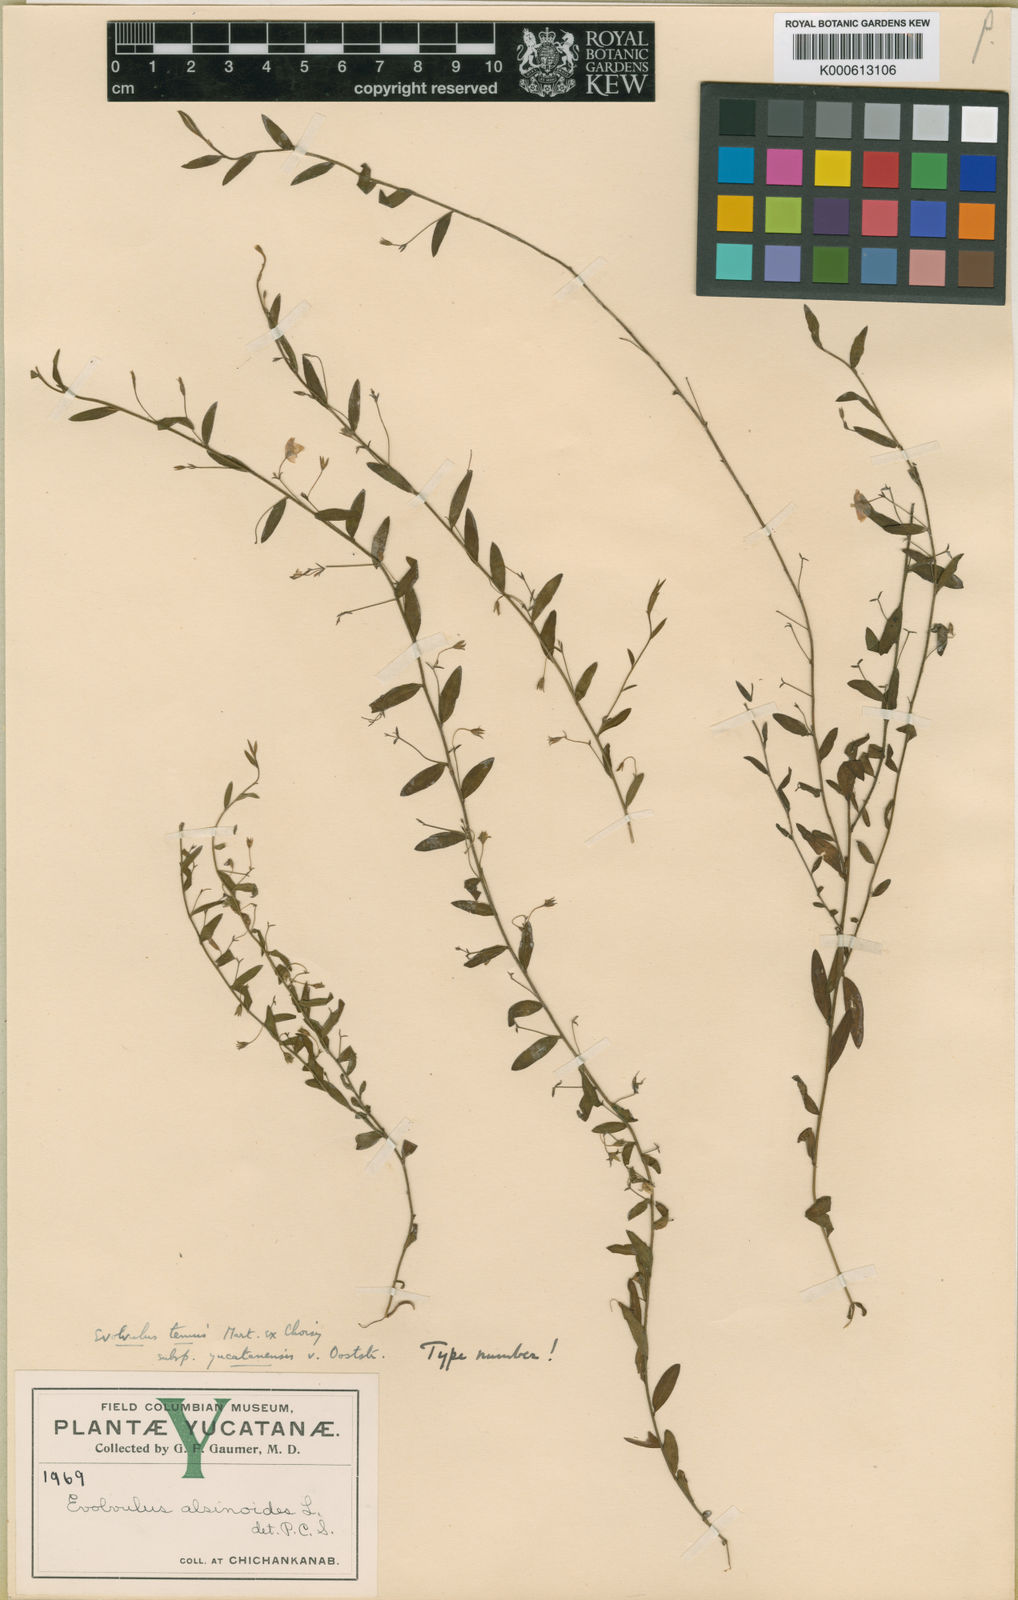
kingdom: Plantae
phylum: Tracheophyta
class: Magnoliopsida
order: Solanales
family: Convolvulaceae
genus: Evolvulus
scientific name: Evolvulus
